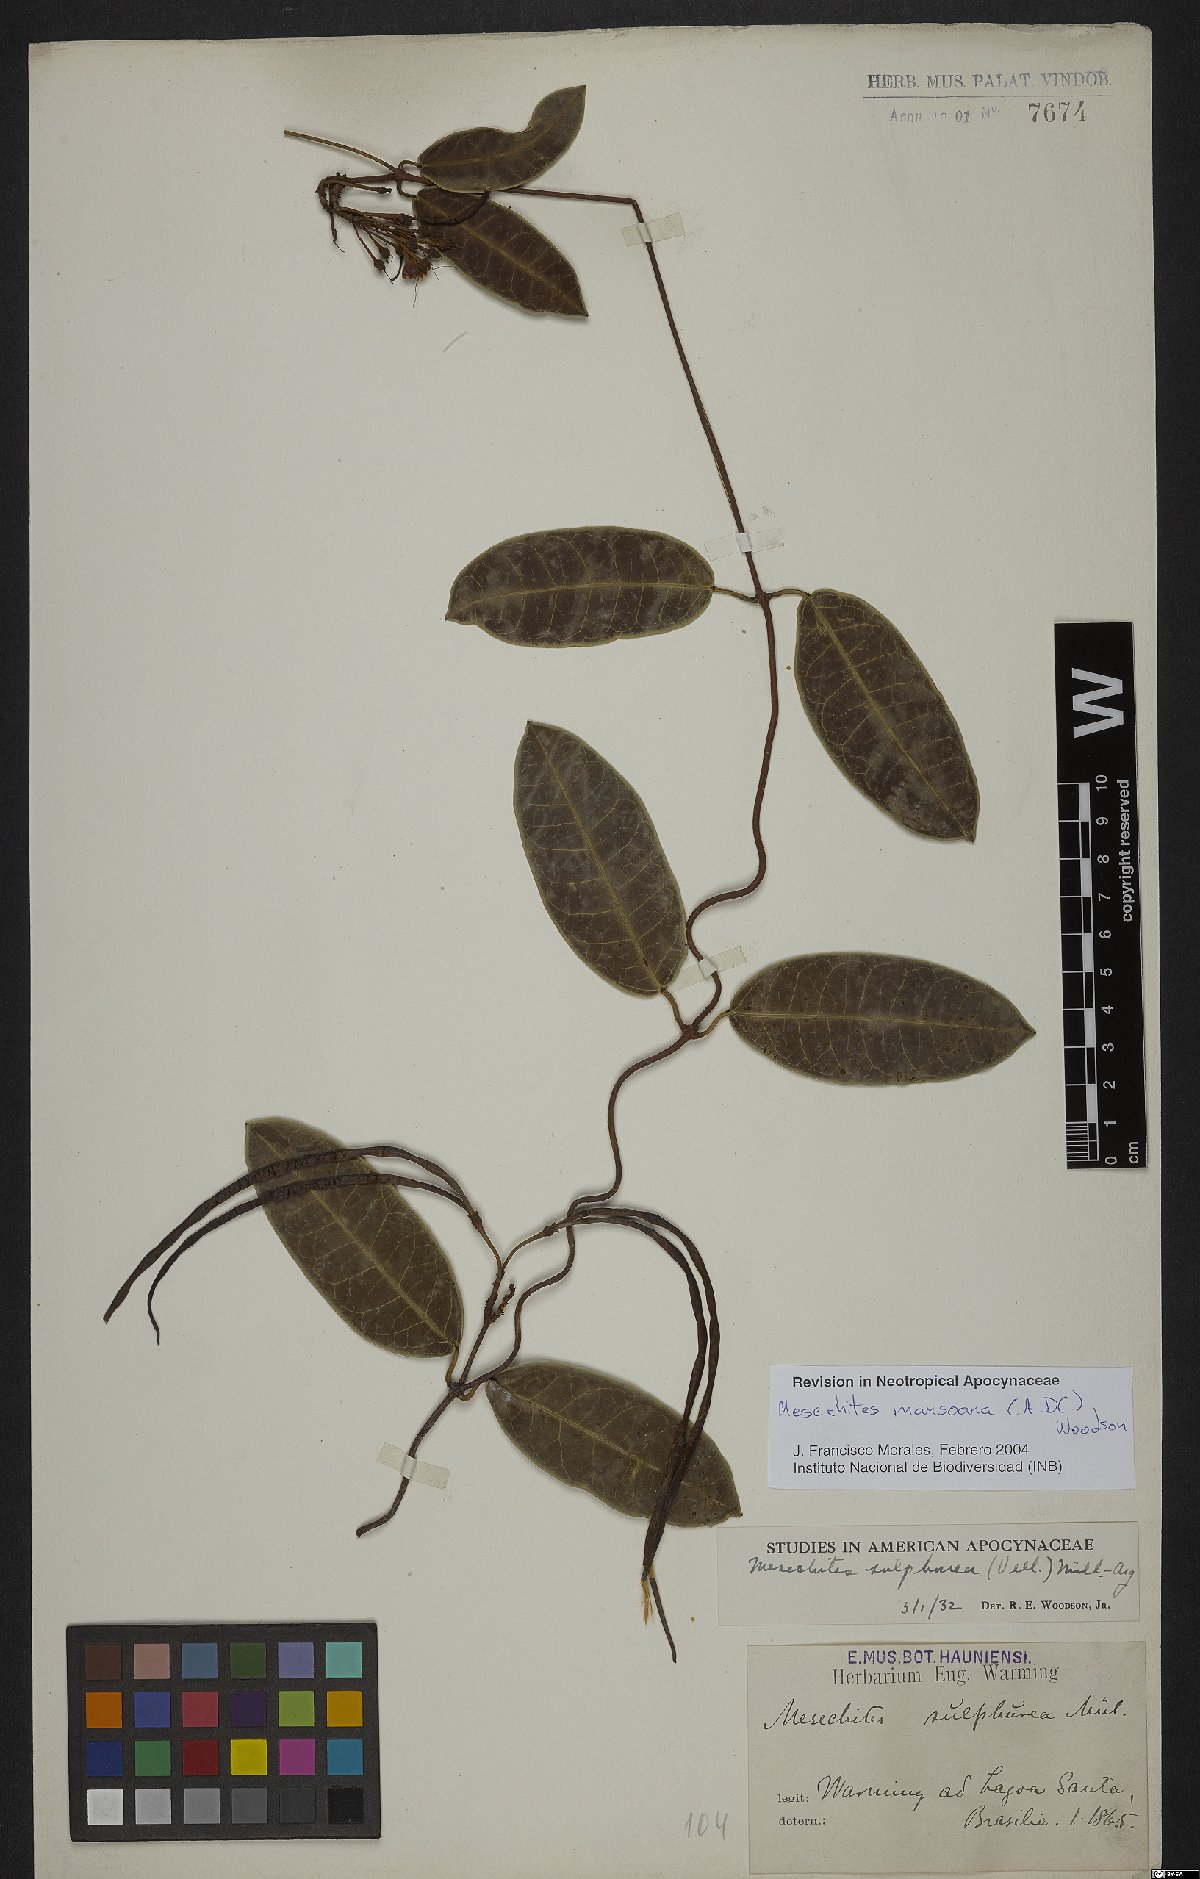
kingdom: Plantae
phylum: Tracheophyta
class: Magnoliopsida
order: Gentianales
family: Apocynaceae
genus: Mesechites
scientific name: Mesechites mansoanus
